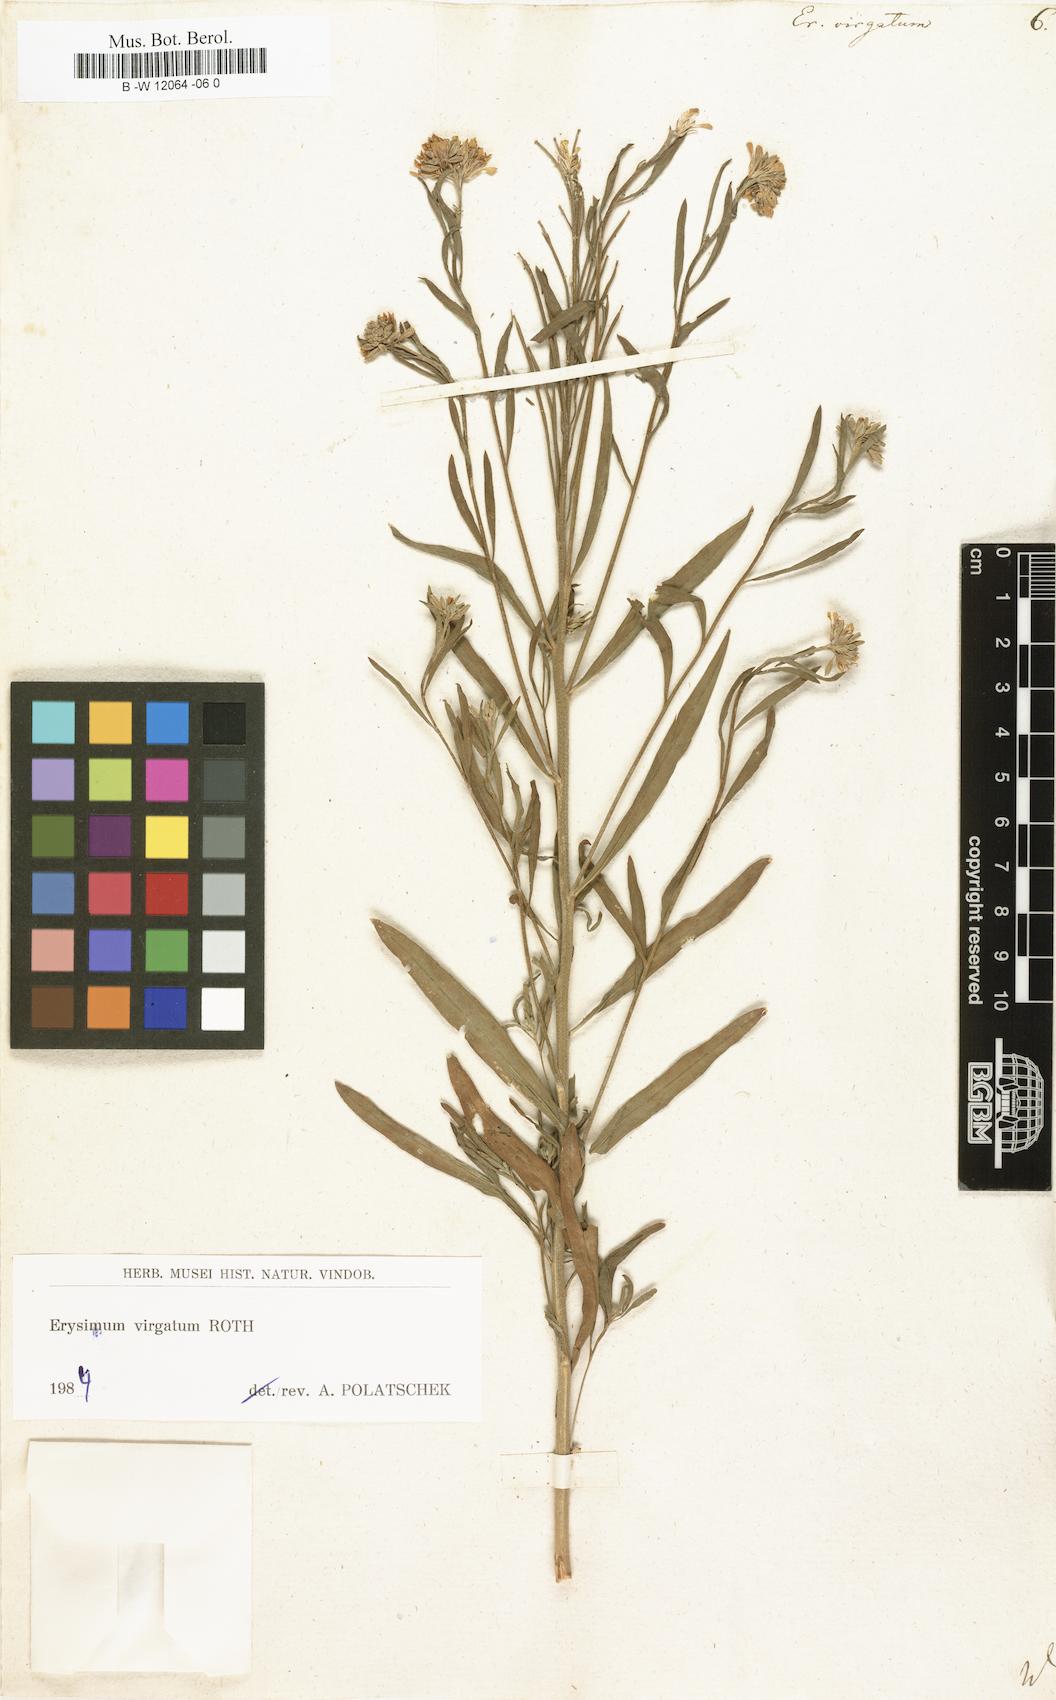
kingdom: Plantae
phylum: Tracheophyta
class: Magnoliopsida
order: Brassicales
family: Brassicaceae
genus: Erysimum
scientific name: Erysimum virgatum
